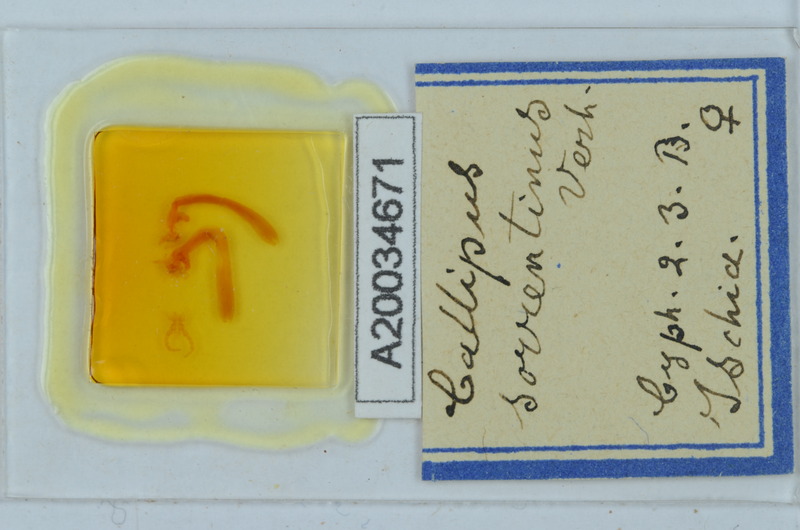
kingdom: Animalia
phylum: Arthropoda
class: Diplopoda
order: Callipodida
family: Callipodidae
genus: Callipus
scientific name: Callipus foetidissimus
